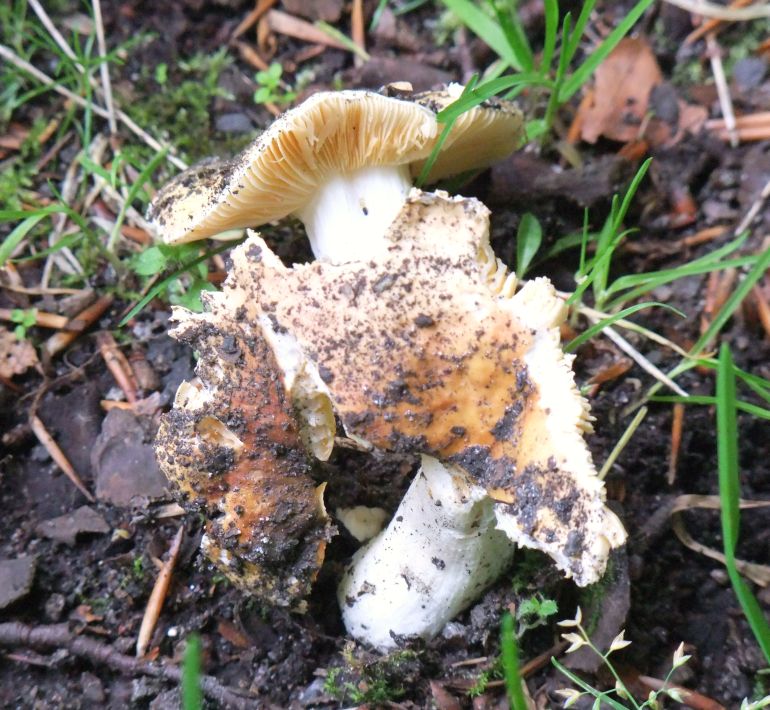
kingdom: Fungi
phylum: Basidiomycota
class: Agaricomycetes
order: Russulales
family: Russulaceae
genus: Russula
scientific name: Russula risigallina
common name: abrikos-skørhat
